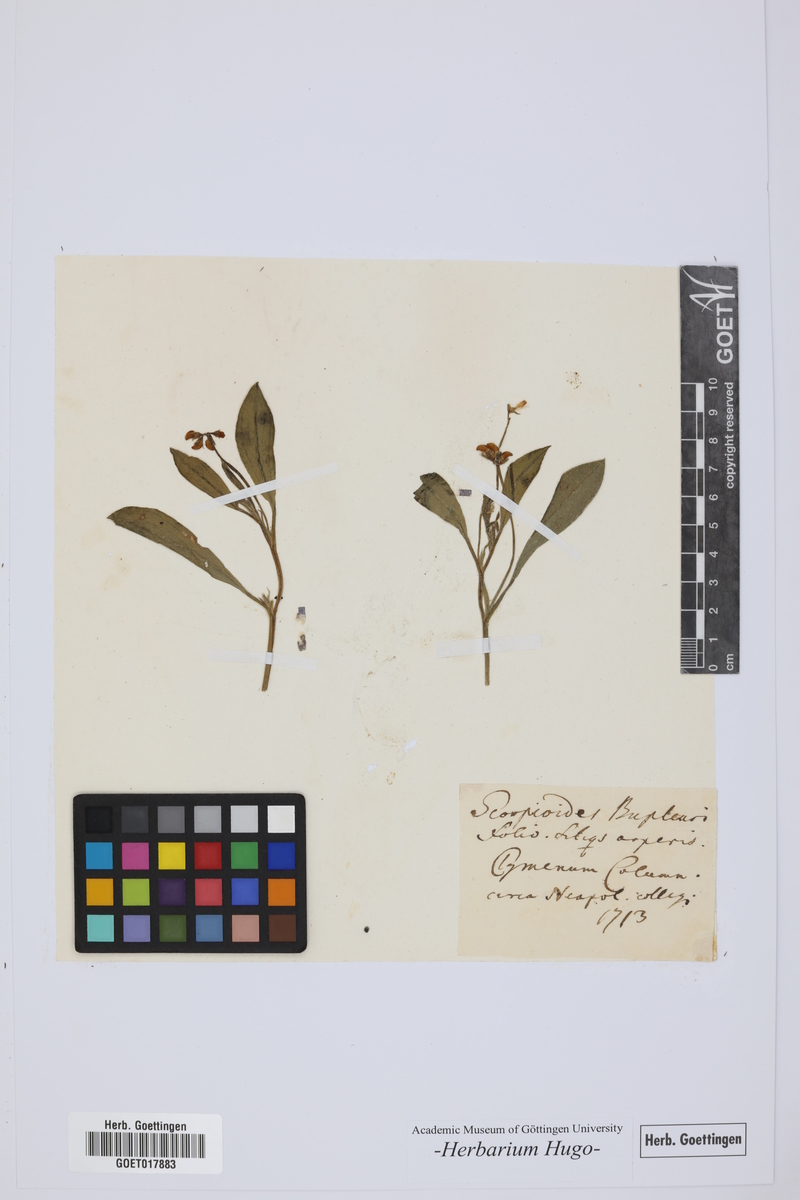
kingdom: Plantae
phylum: Tracheophyta
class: Magnoliopsida
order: Fabales
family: Fabaceae
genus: Scorpiurus
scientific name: Scorpiurus muricatus
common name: Caterpillar-plant
